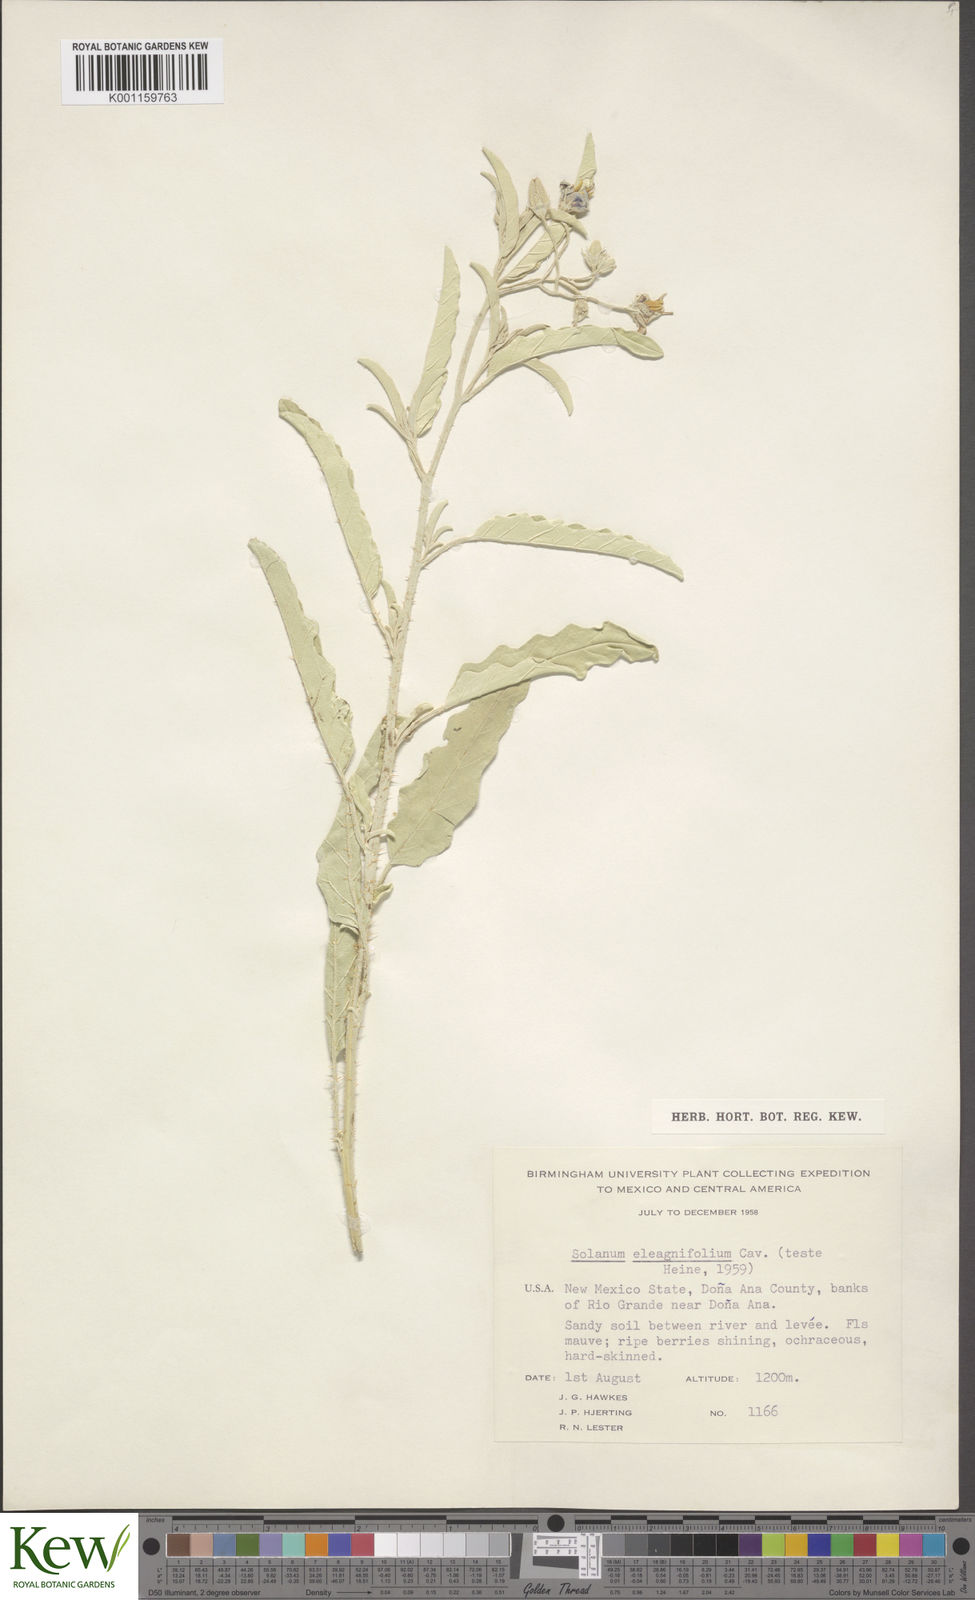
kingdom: Plantae
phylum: Tracheophyta
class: Magnoliopsida
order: Solanales
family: Solanaceae
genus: Solanum
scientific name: Solanum
